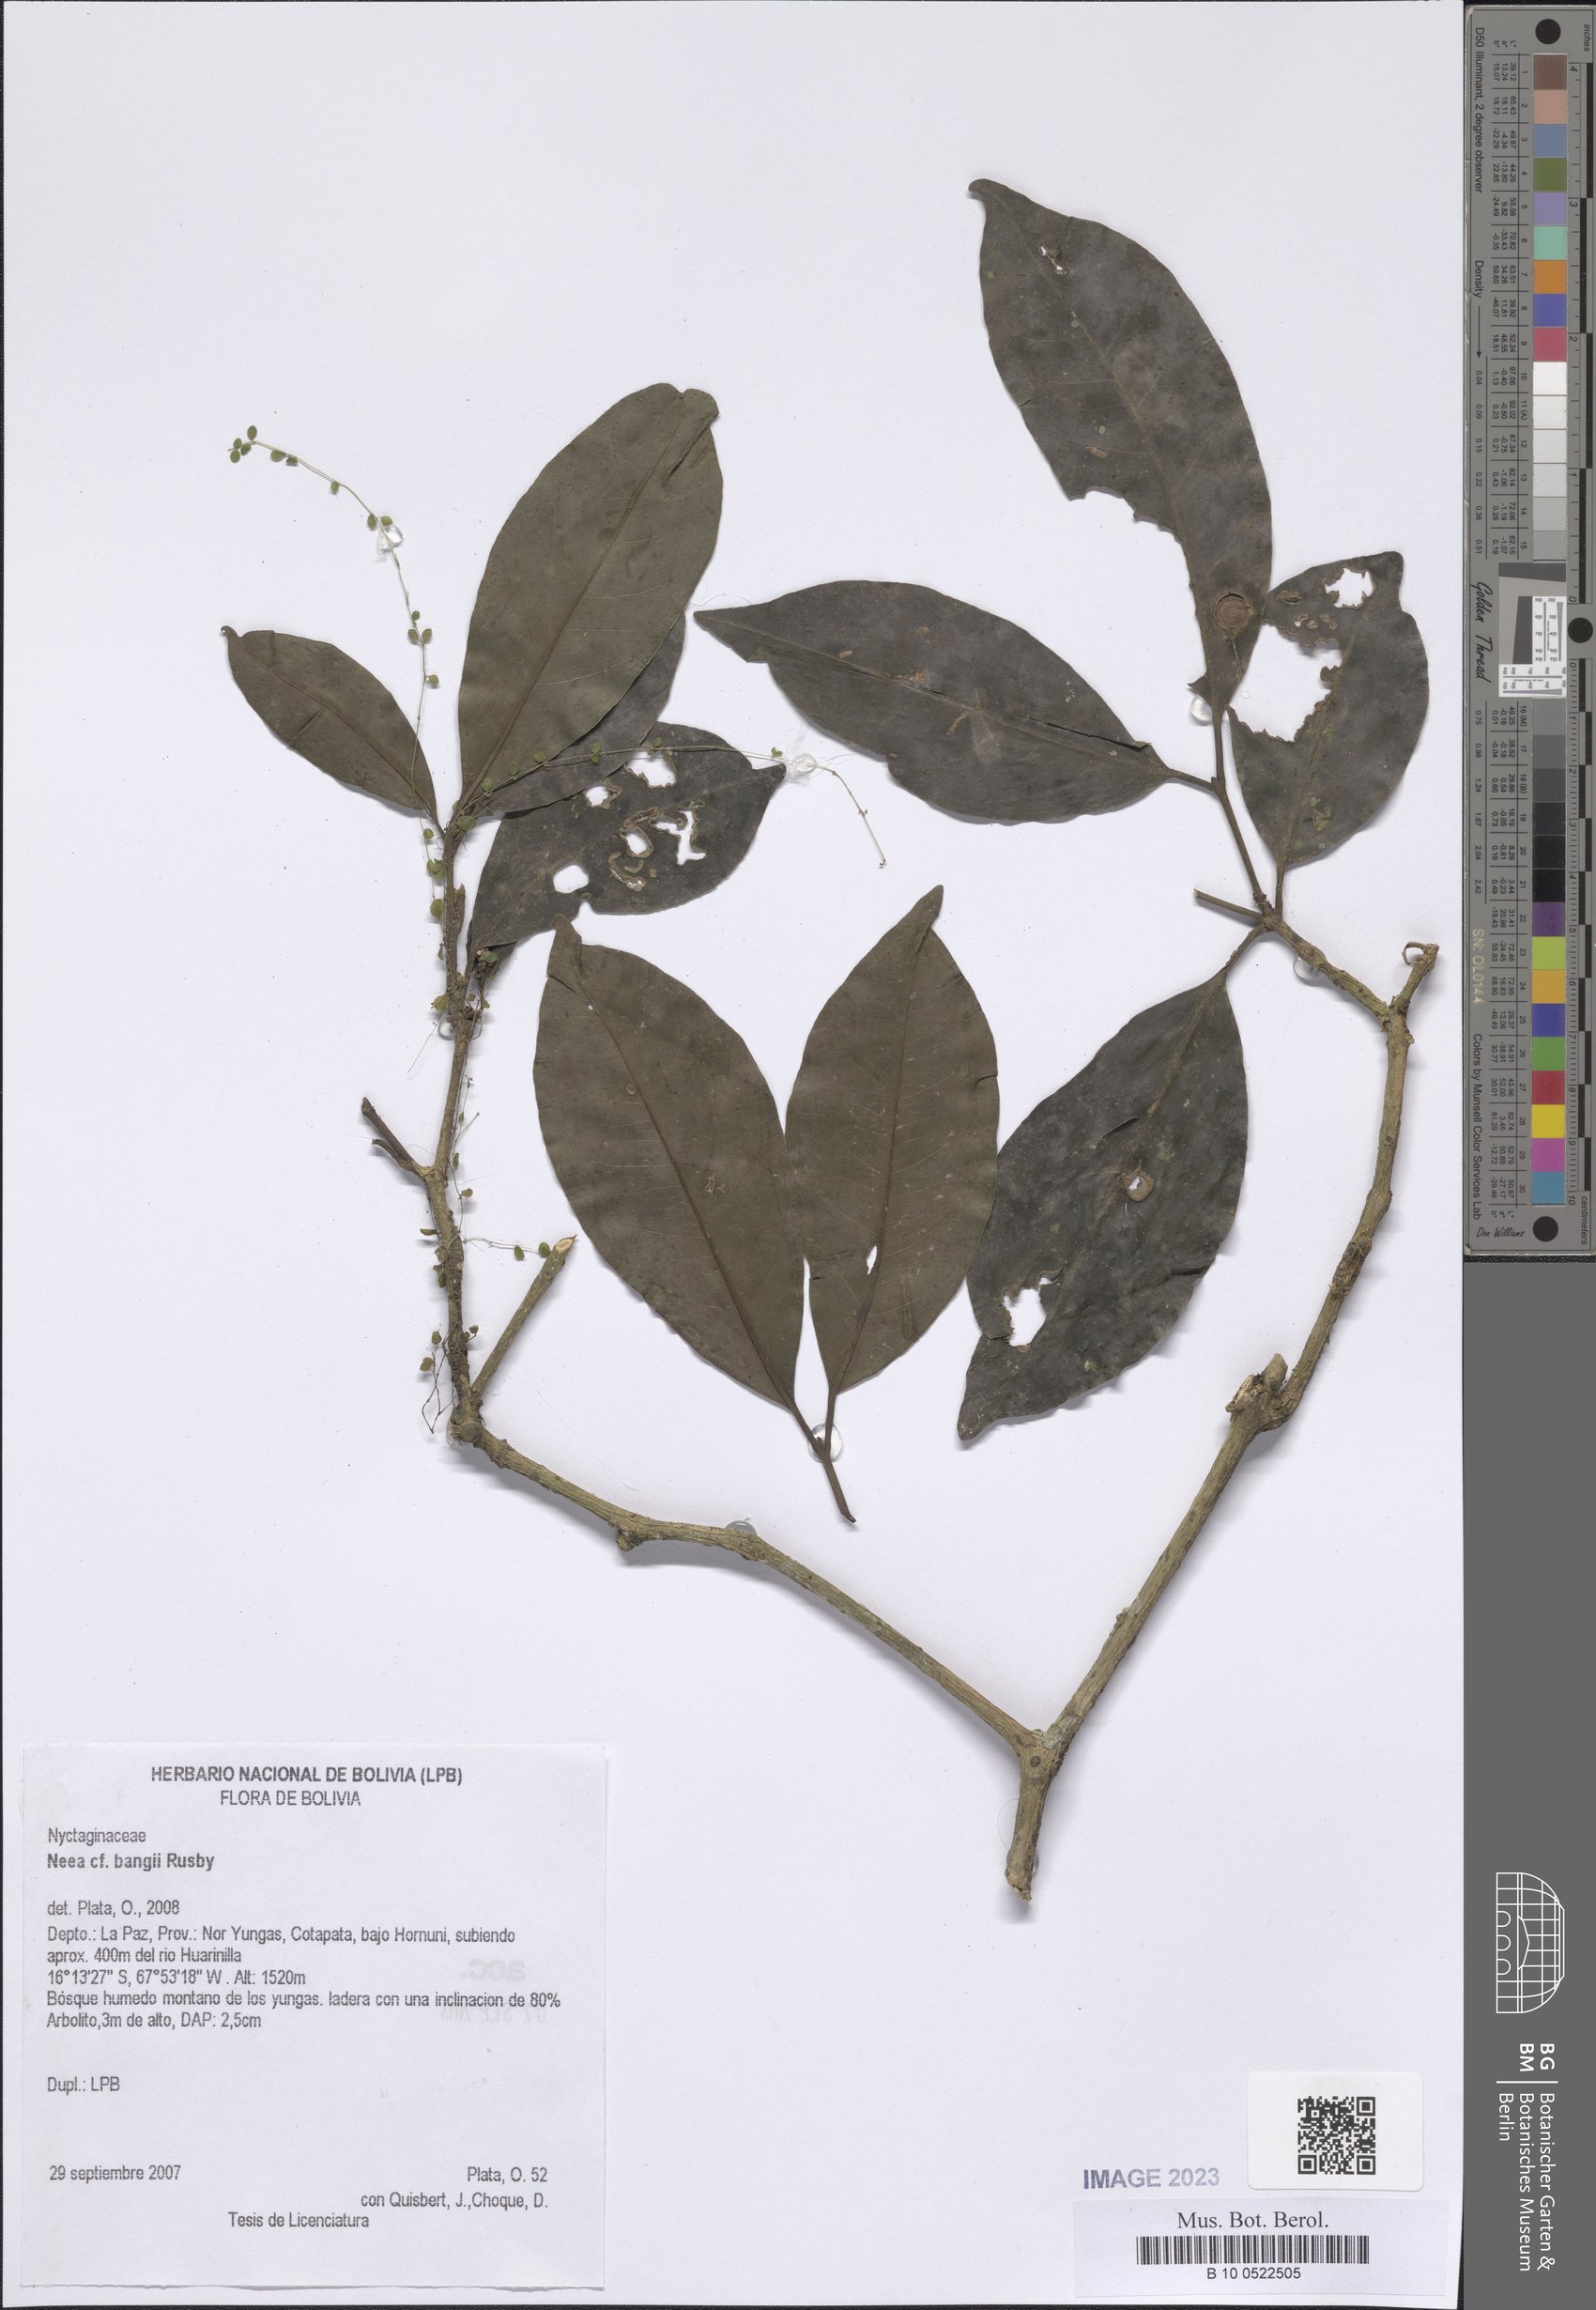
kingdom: Plantae
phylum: Tracheophyta
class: Magnoliopsida
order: Caryophyllales
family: Nyctaginaceae
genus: Neea
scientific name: Neea bangii
